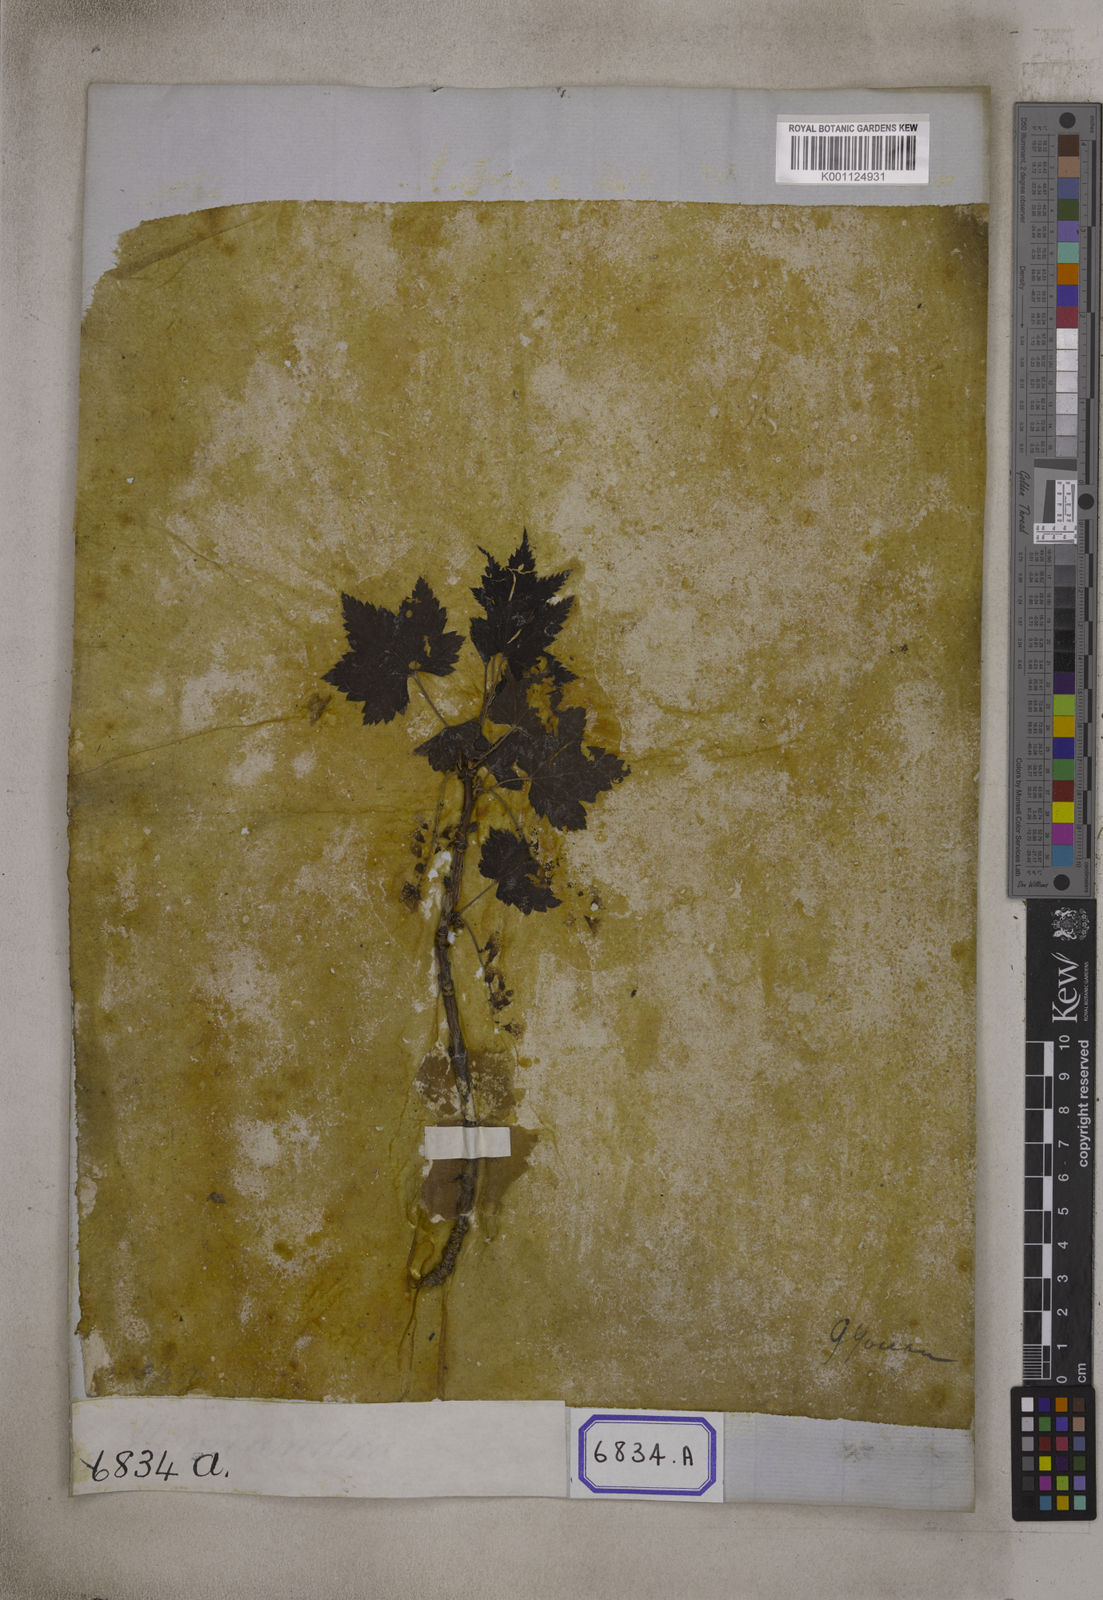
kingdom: Plantae
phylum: Tracheophyta
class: Magnoliopsida
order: Saxifragales
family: Grossulariaceae
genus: Ribes
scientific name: Ribes
